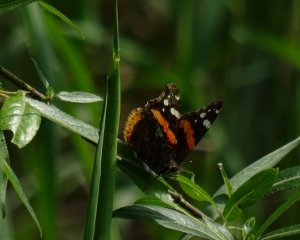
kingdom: Animalia
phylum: Arthropoda
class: Insecta
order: Lepidoptera
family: Nymphalidae
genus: Vanessa
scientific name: Vanessa atalanta
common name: Red Admiral
